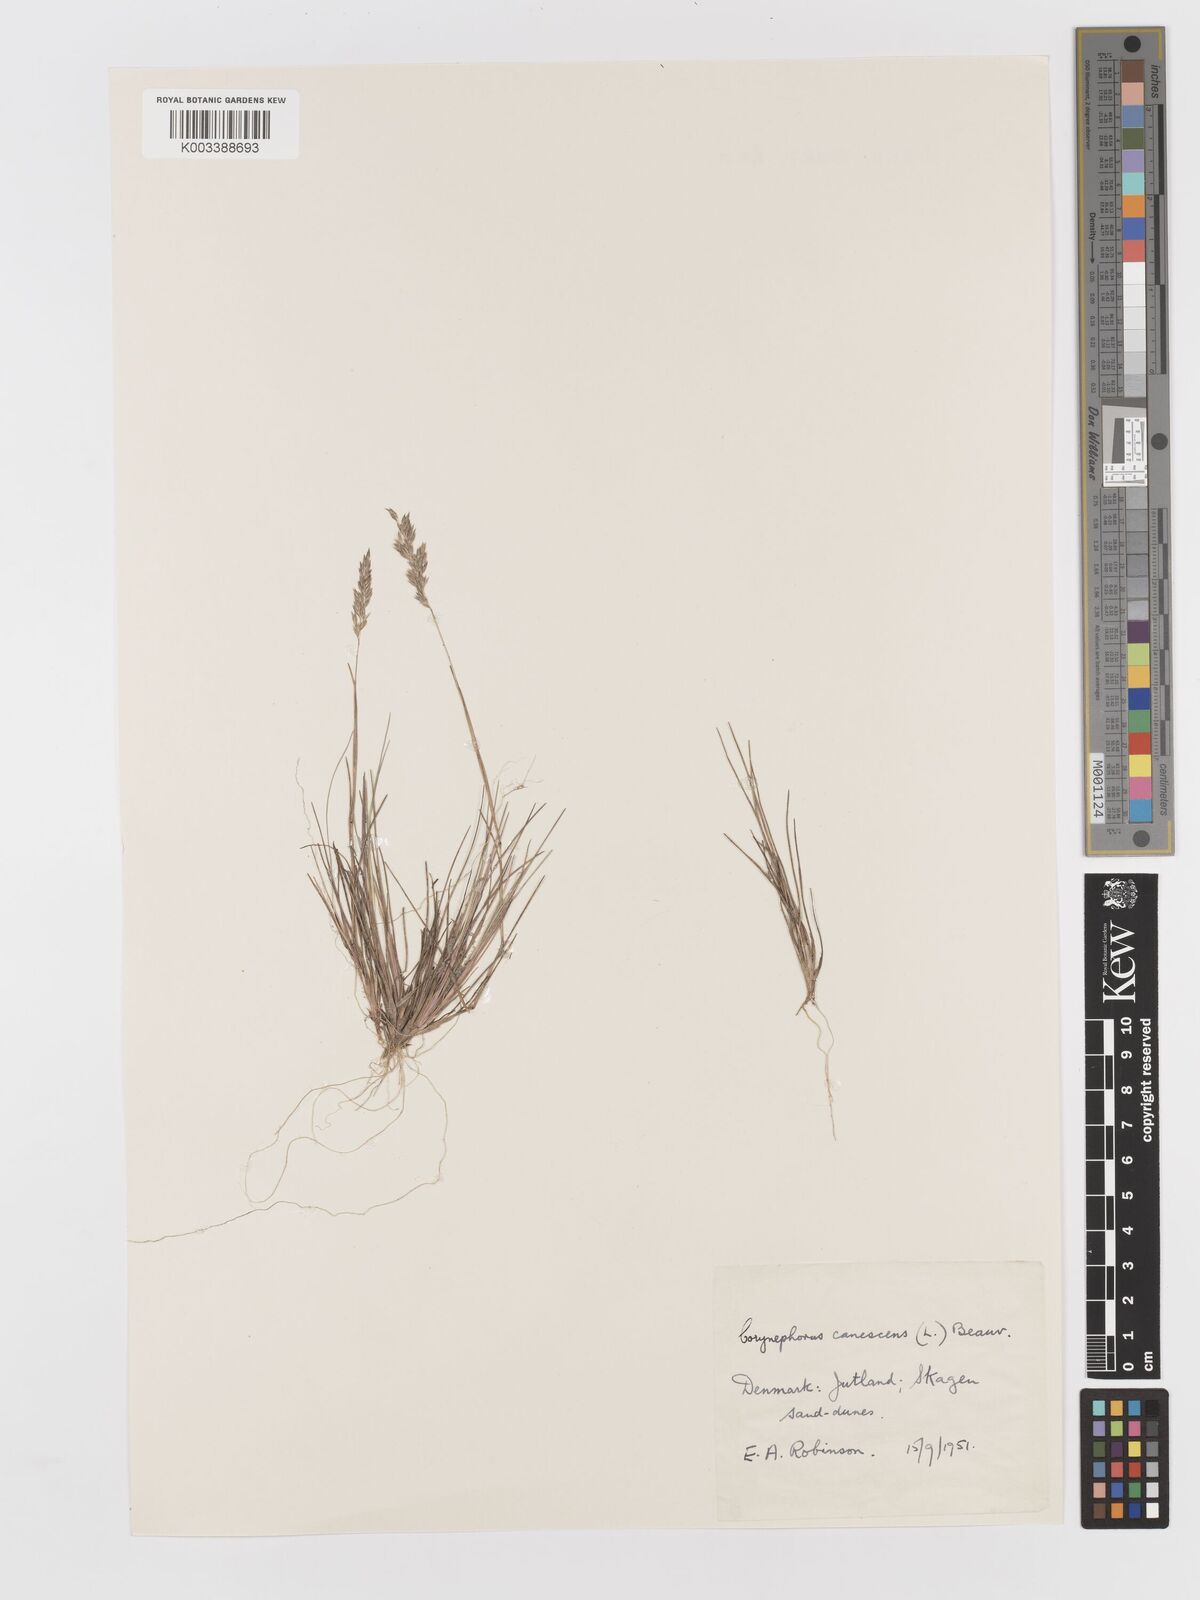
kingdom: Plantae
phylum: Tracheophyta
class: Liliopsida
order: Poales
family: Poaceae
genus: Corynephorus
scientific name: Corynephorus canescens
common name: Grey hair-grass
